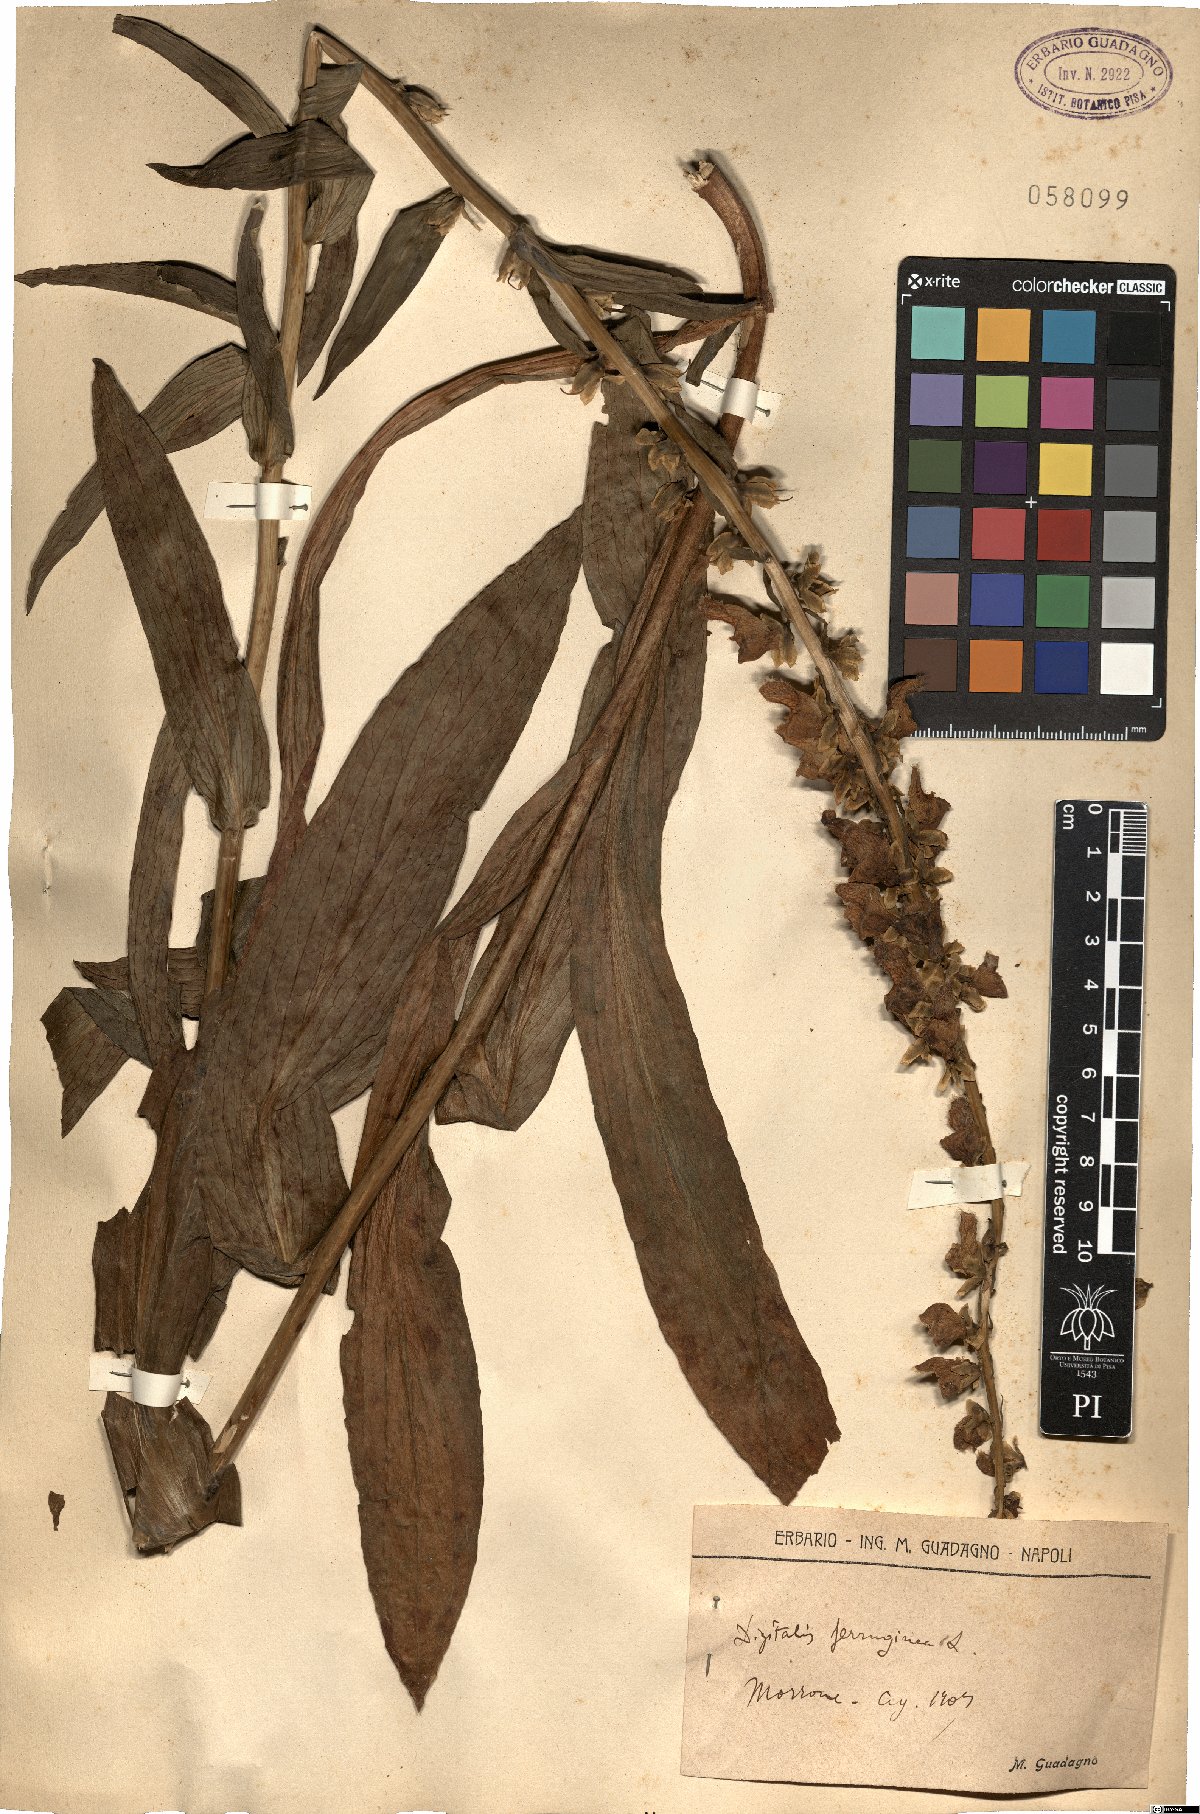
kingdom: Plantae
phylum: Tracheophyta
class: Magnoliopsida
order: Lamiales
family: Plantaginaceae
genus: Digitalis
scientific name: Digitalis ferruginea
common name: Rusty foxglove
